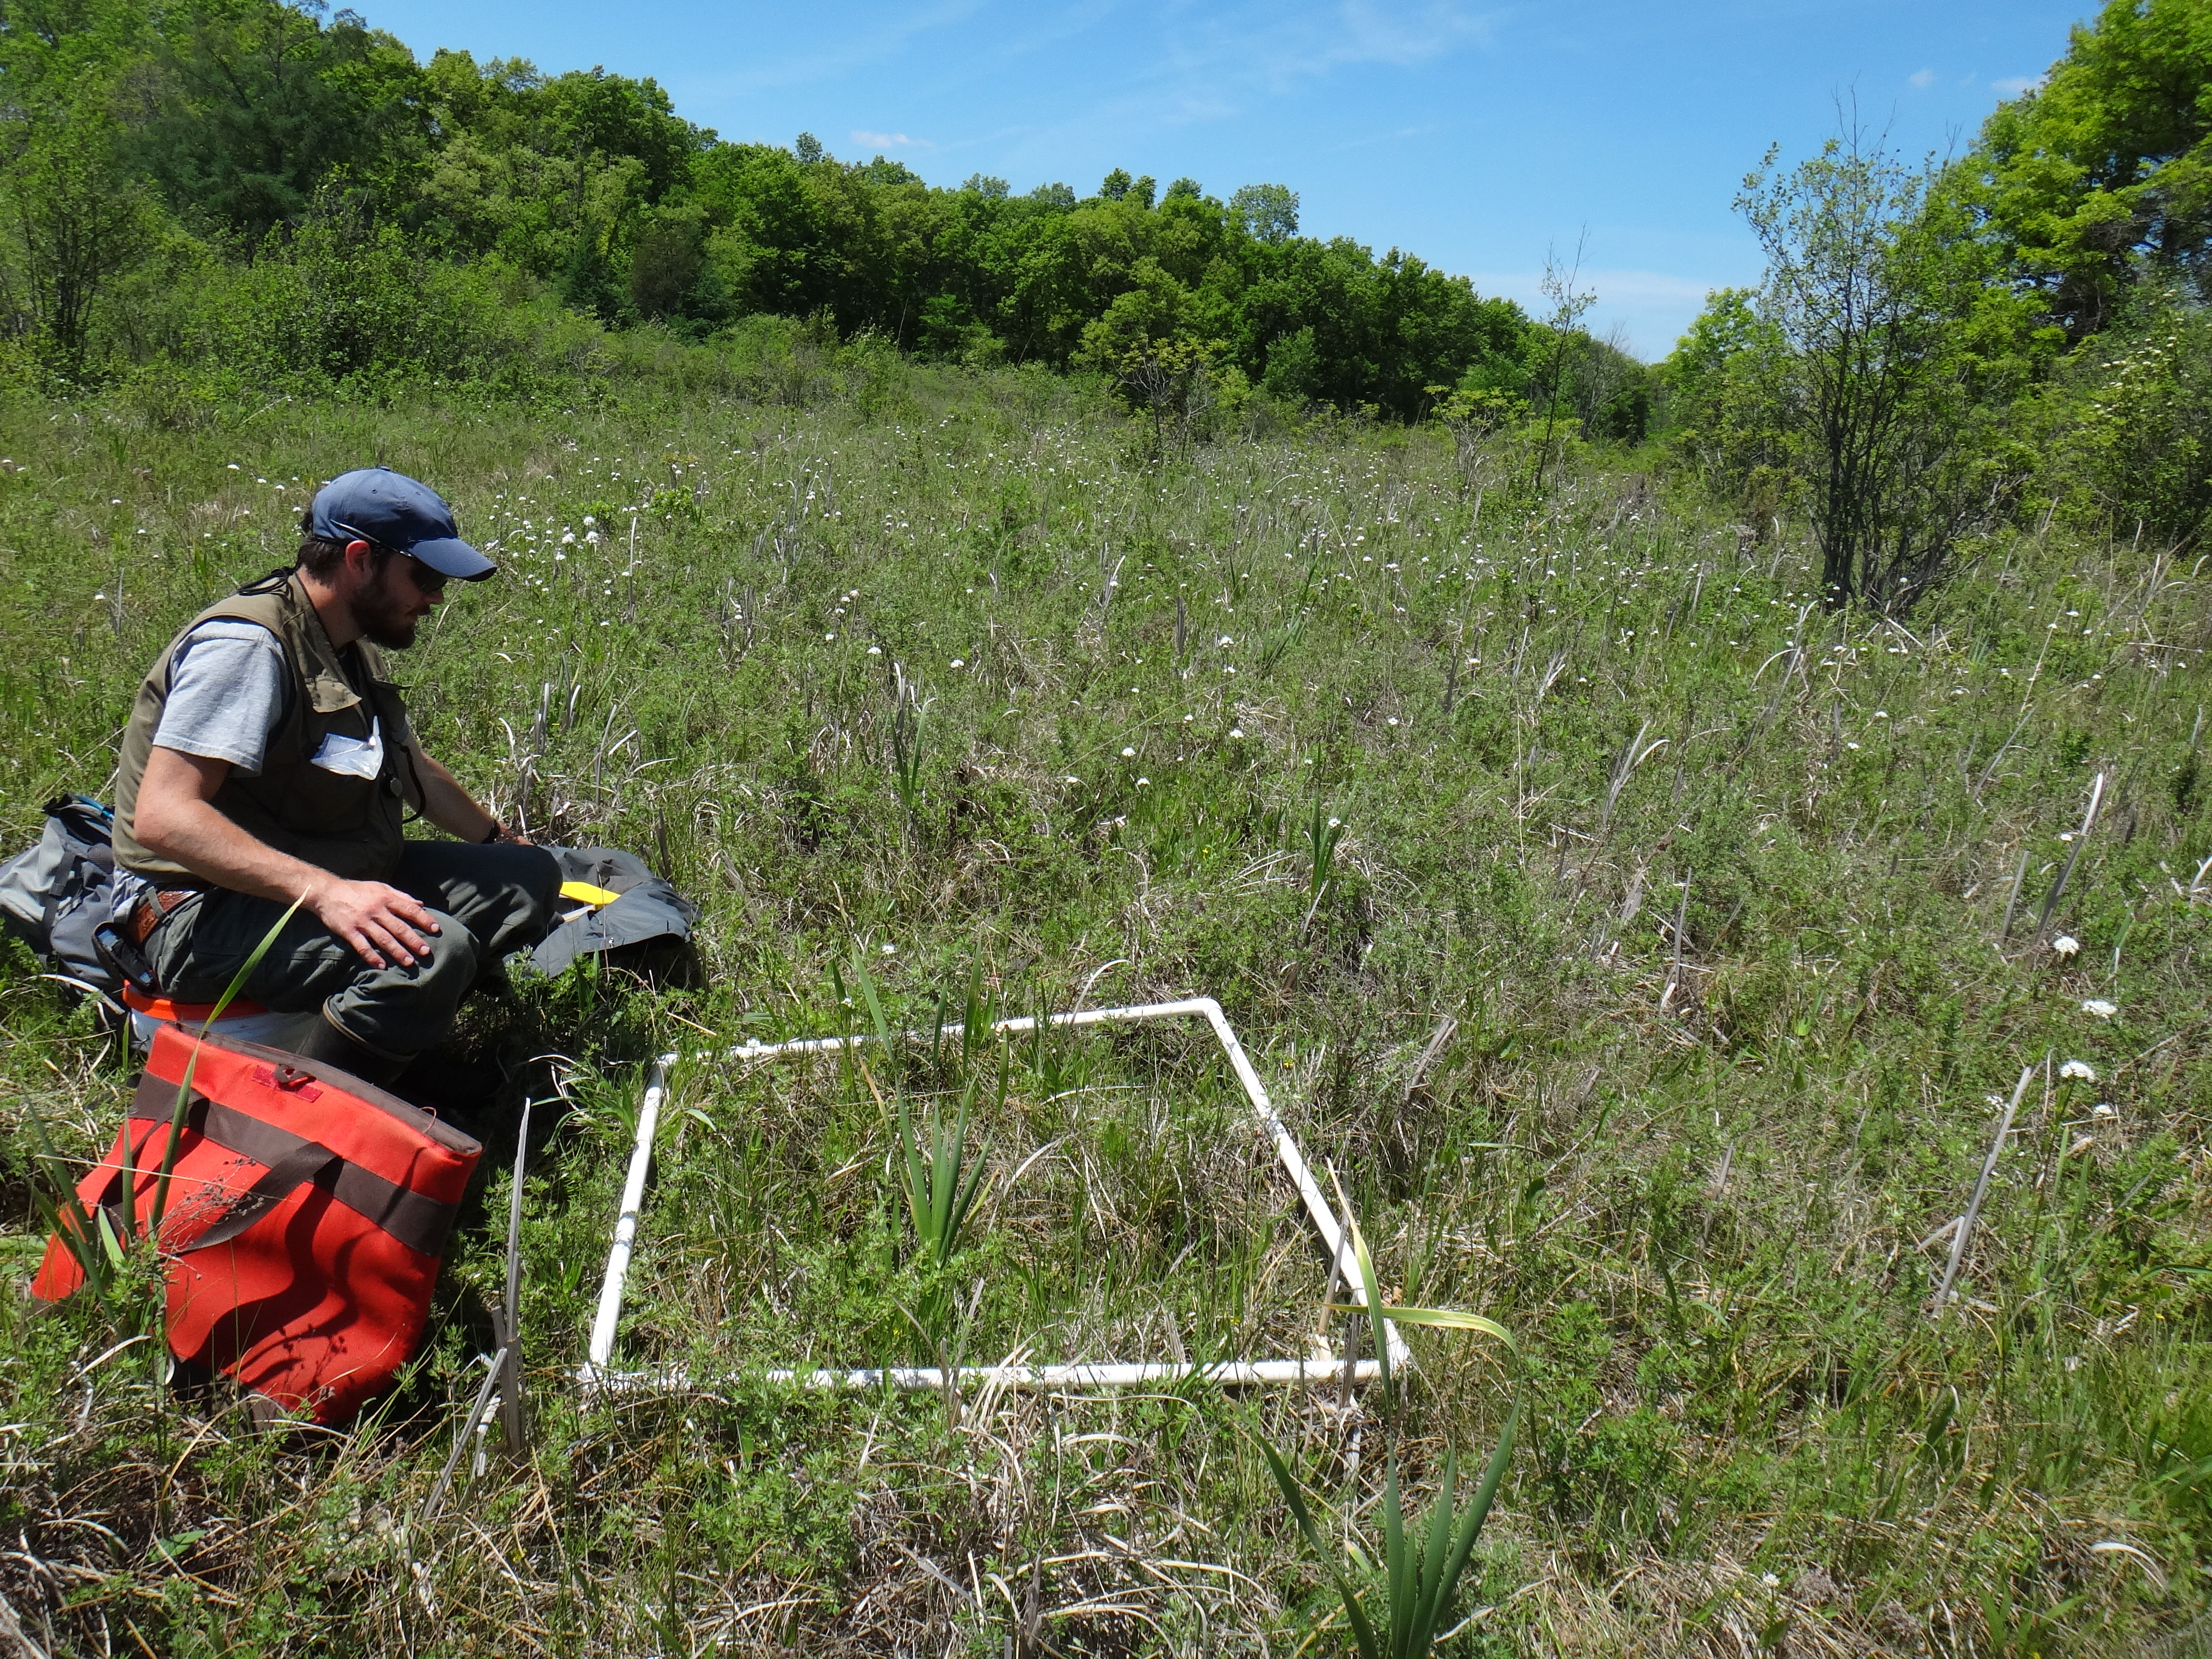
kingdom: Plantae
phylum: Tracheophyta
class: Liliopsida
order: Asparagales
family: Hypoxidaceae
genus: Hypoxis
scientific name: Hypoxis hirsuta
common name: Common goldstar
